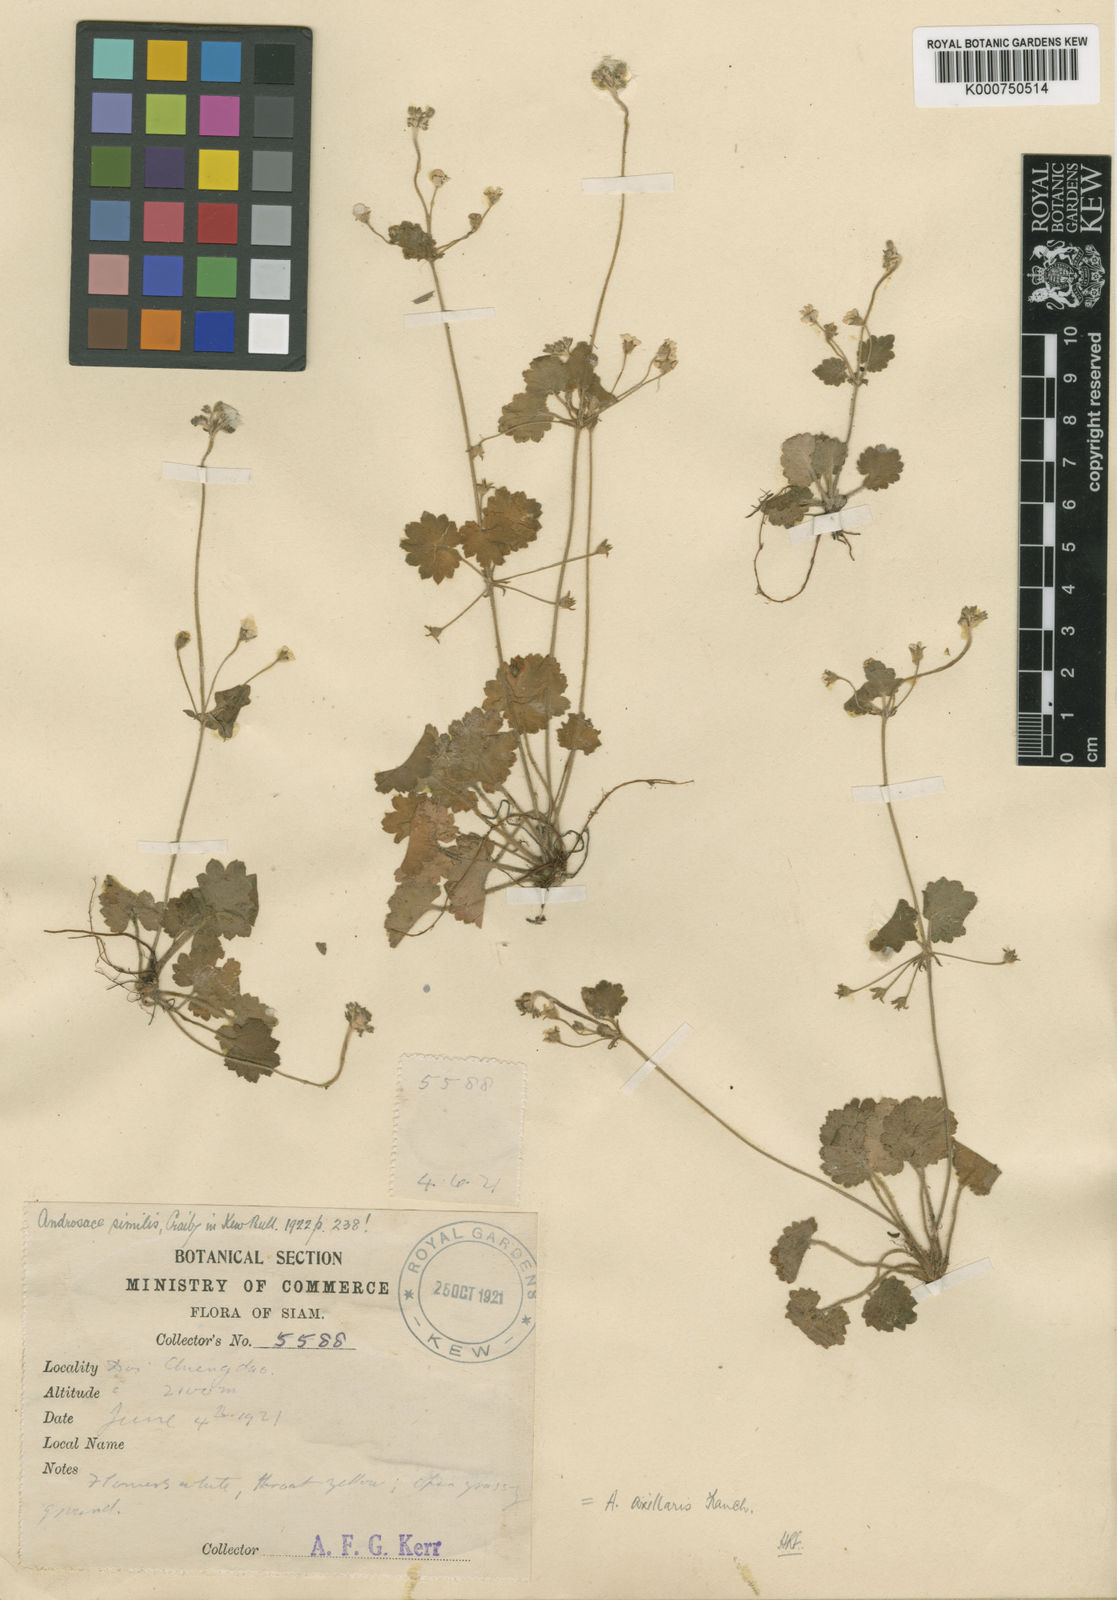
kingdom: Plantae
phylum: Tracheophyta
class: Magnoliopsida
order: Ericales
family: Primulaceae
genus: Androsace
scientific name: Androsace axillaris
